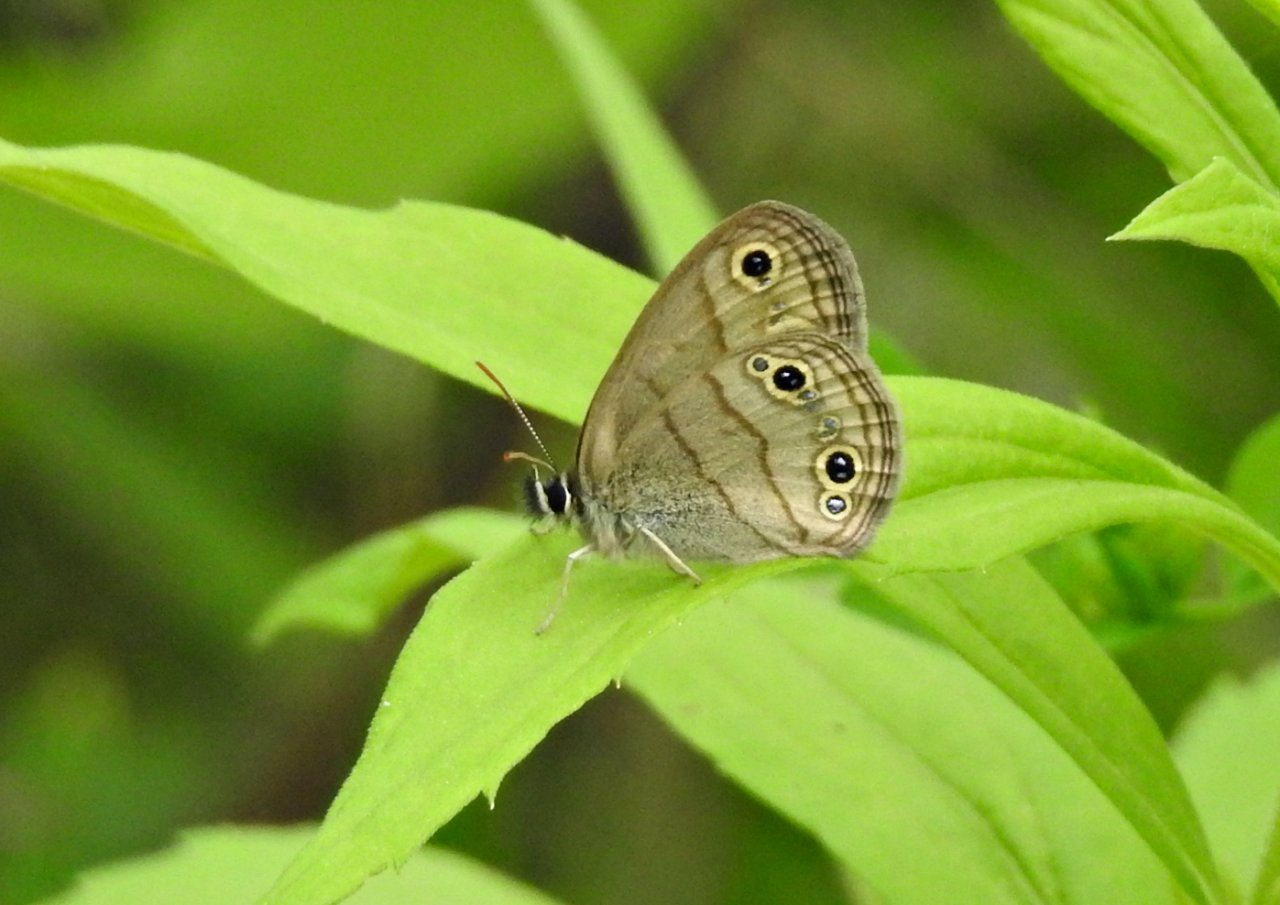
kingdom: Animalia
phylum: Arthropoda
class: Insecta
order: Lepidoptera
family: Nymphalidae
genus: Euptychia
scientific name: Euptychia cymela
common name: Little Wood Satyr
